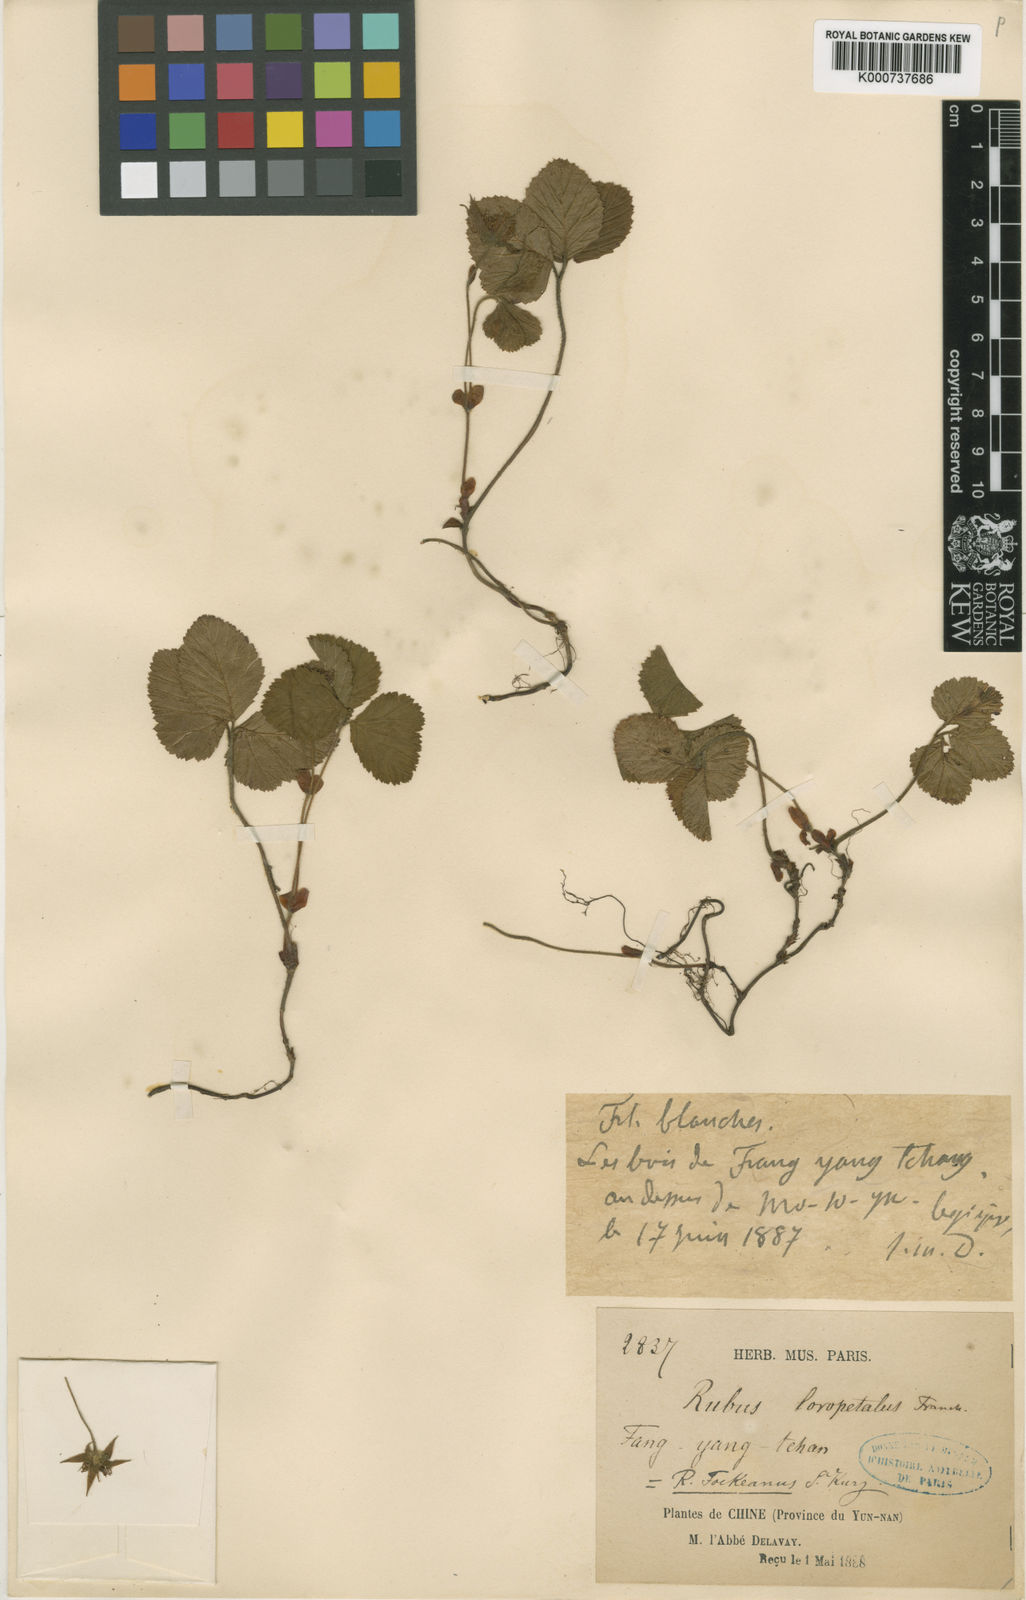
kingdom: Plantae
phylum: Tracheophyta
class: Magnoliopsida
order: Rosales
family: Rosaceae
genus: Rubus
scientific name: Rubus fockeanus
